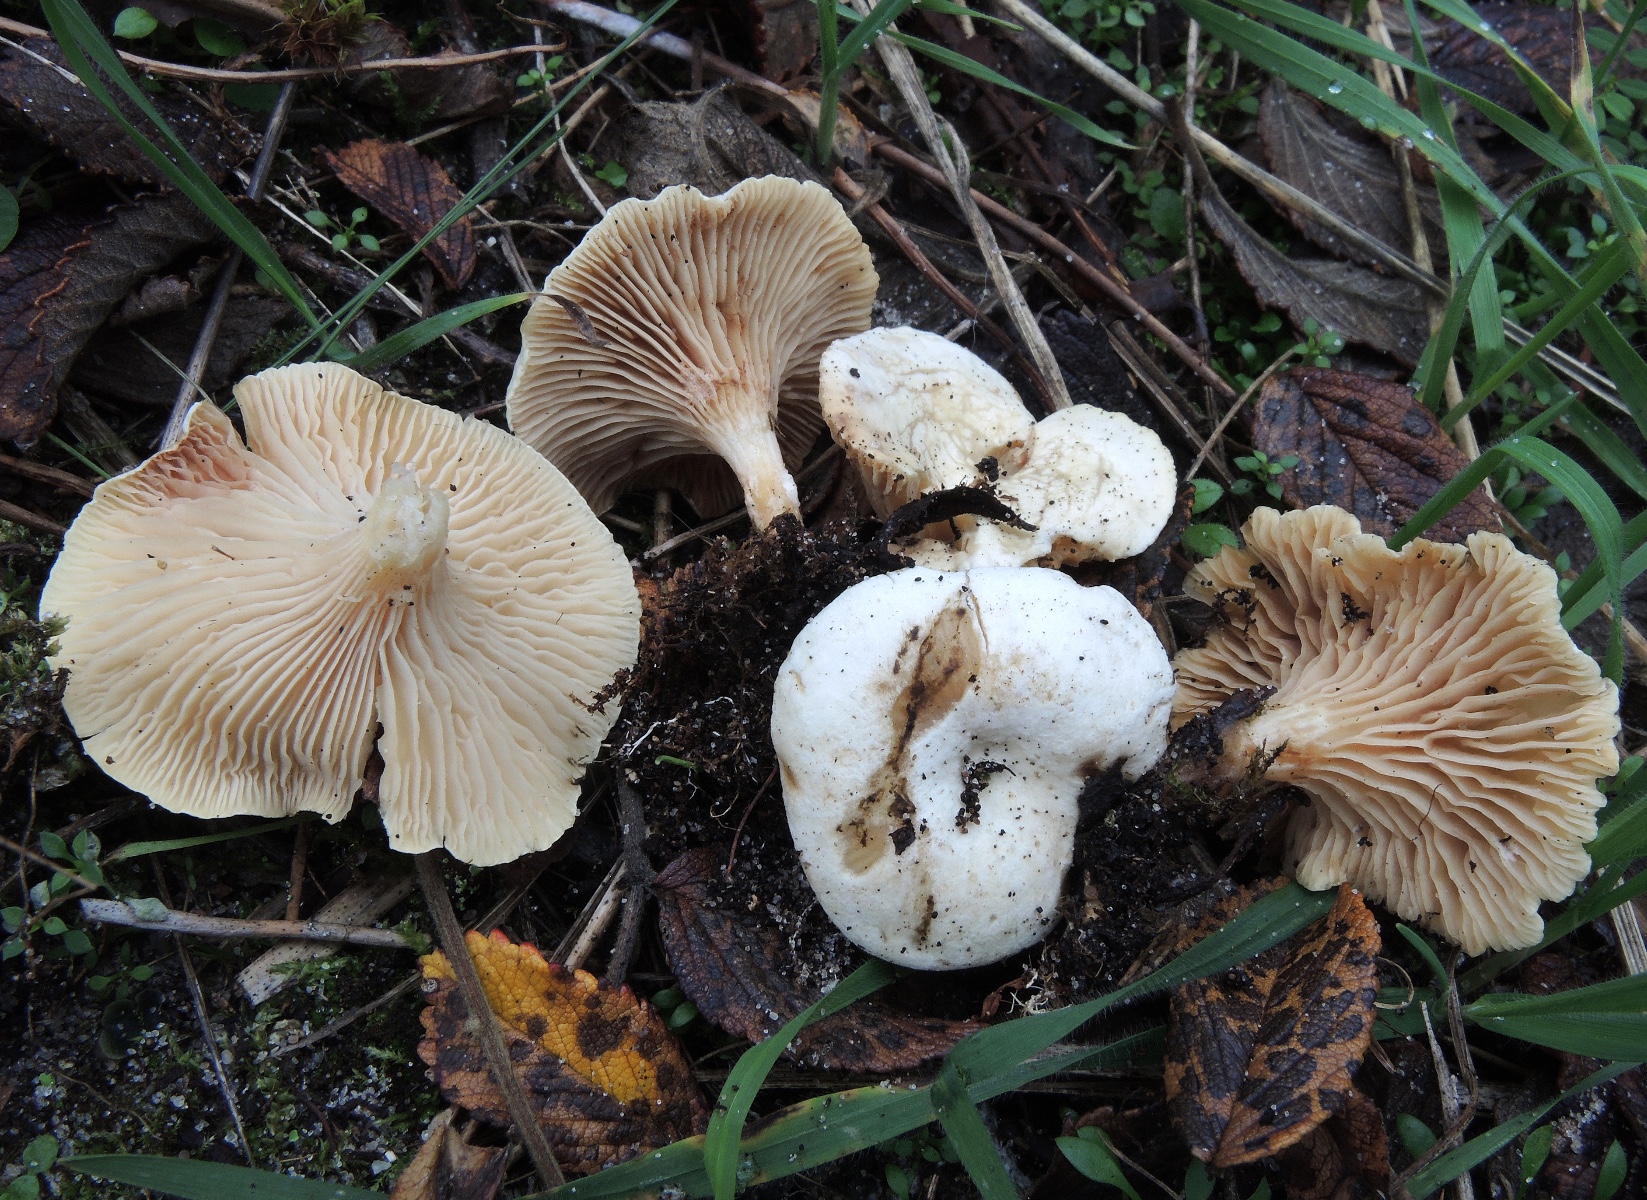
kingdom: Fungi
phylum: Basidiomycota
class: Agaricomycetes
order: Agaricales
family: Tricholomataceae
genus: Lulesia
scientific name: Lulesia
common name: hvid troldhat
